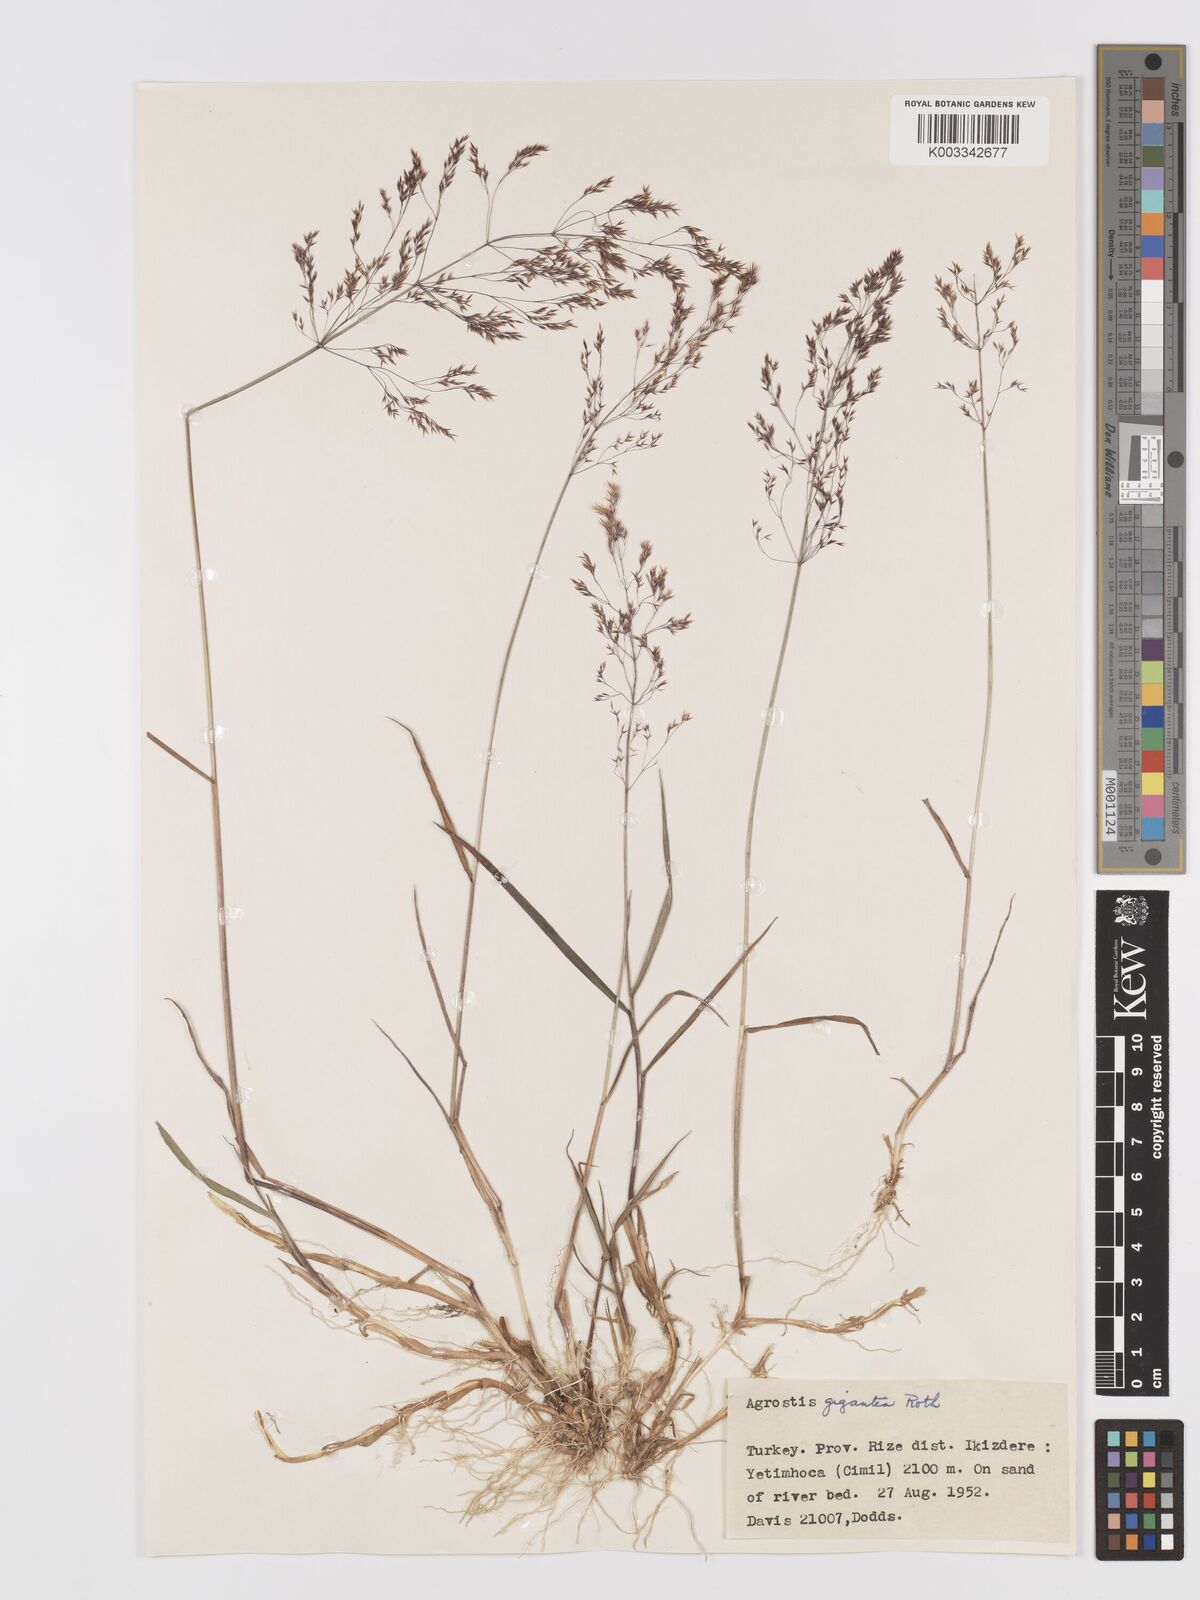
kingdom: Plantae
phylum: Tracheophyta
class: Liliopsida
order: Poales
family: Poaceae
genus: Agrostis
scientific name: Agrostis gigantea
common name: Black bent
